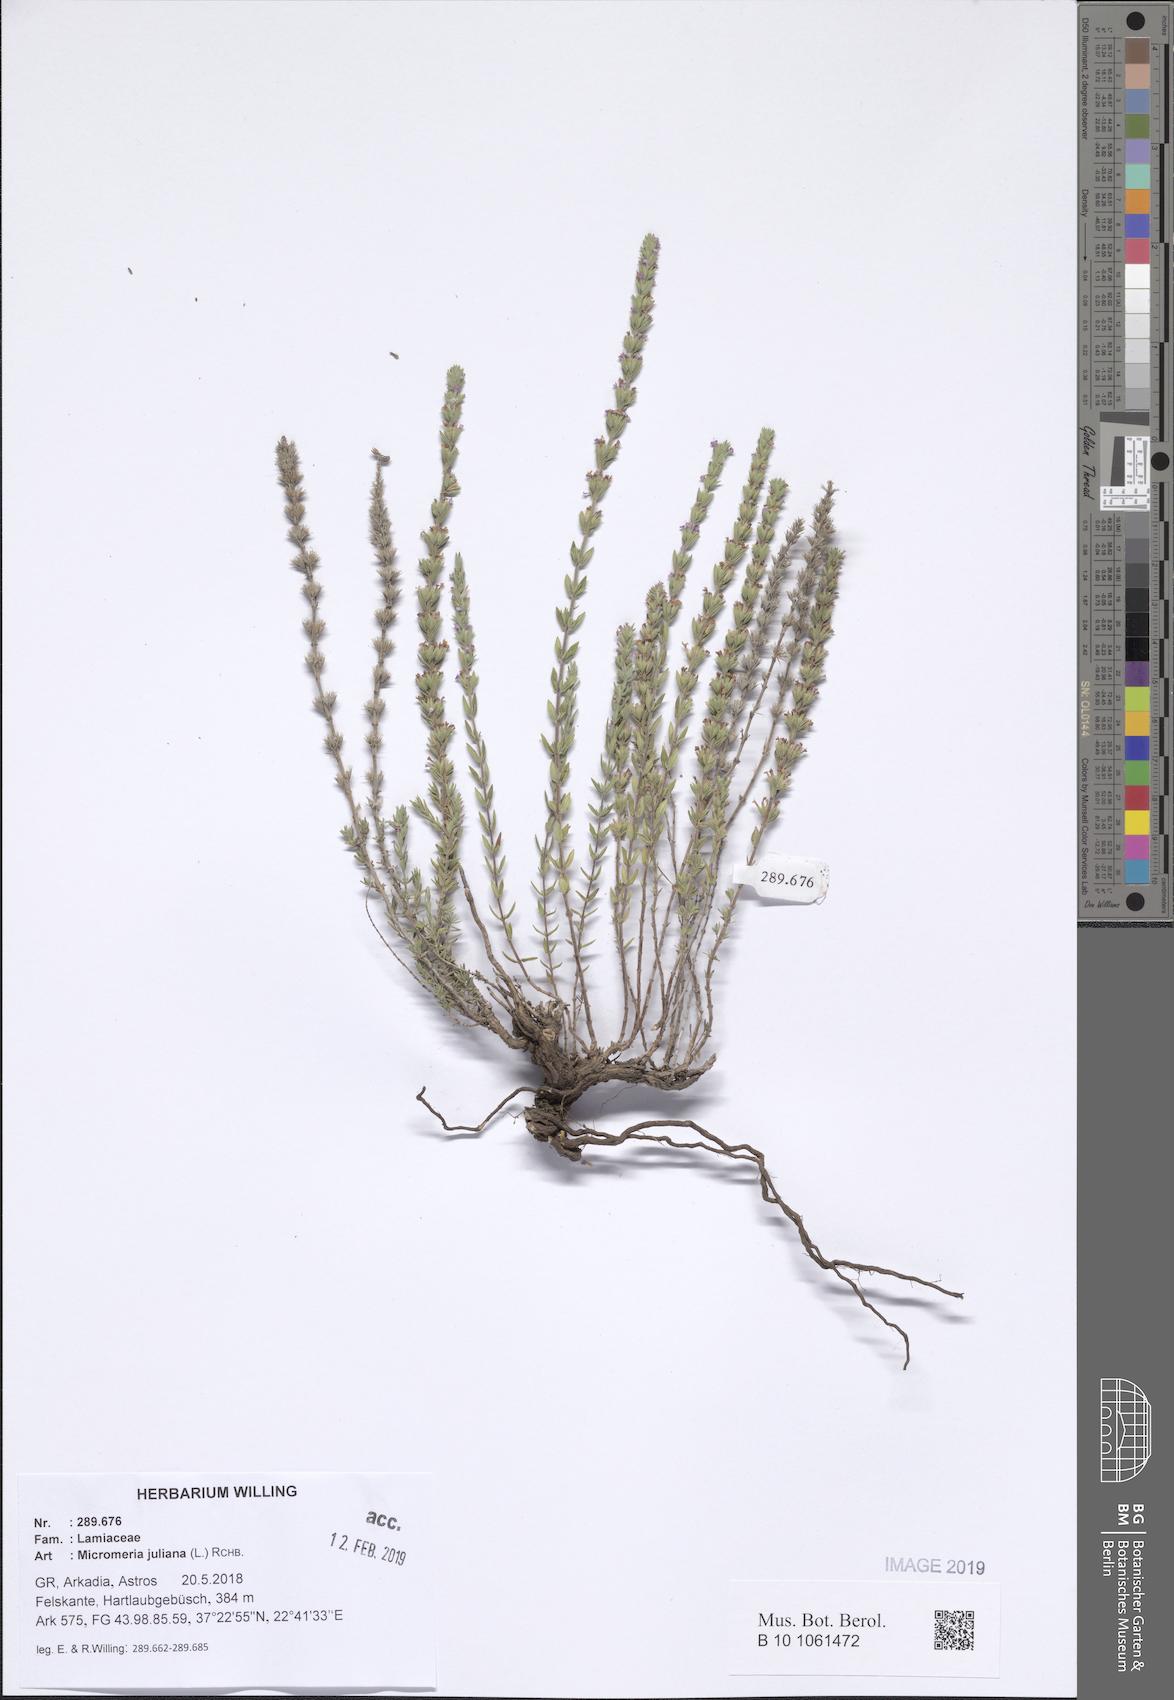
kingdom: Plantae
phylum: Tracheophyta
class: Magnoliopsida
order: Lamiales
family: Lamiaceae
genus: Micromeria
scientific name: Micromeria juliana
